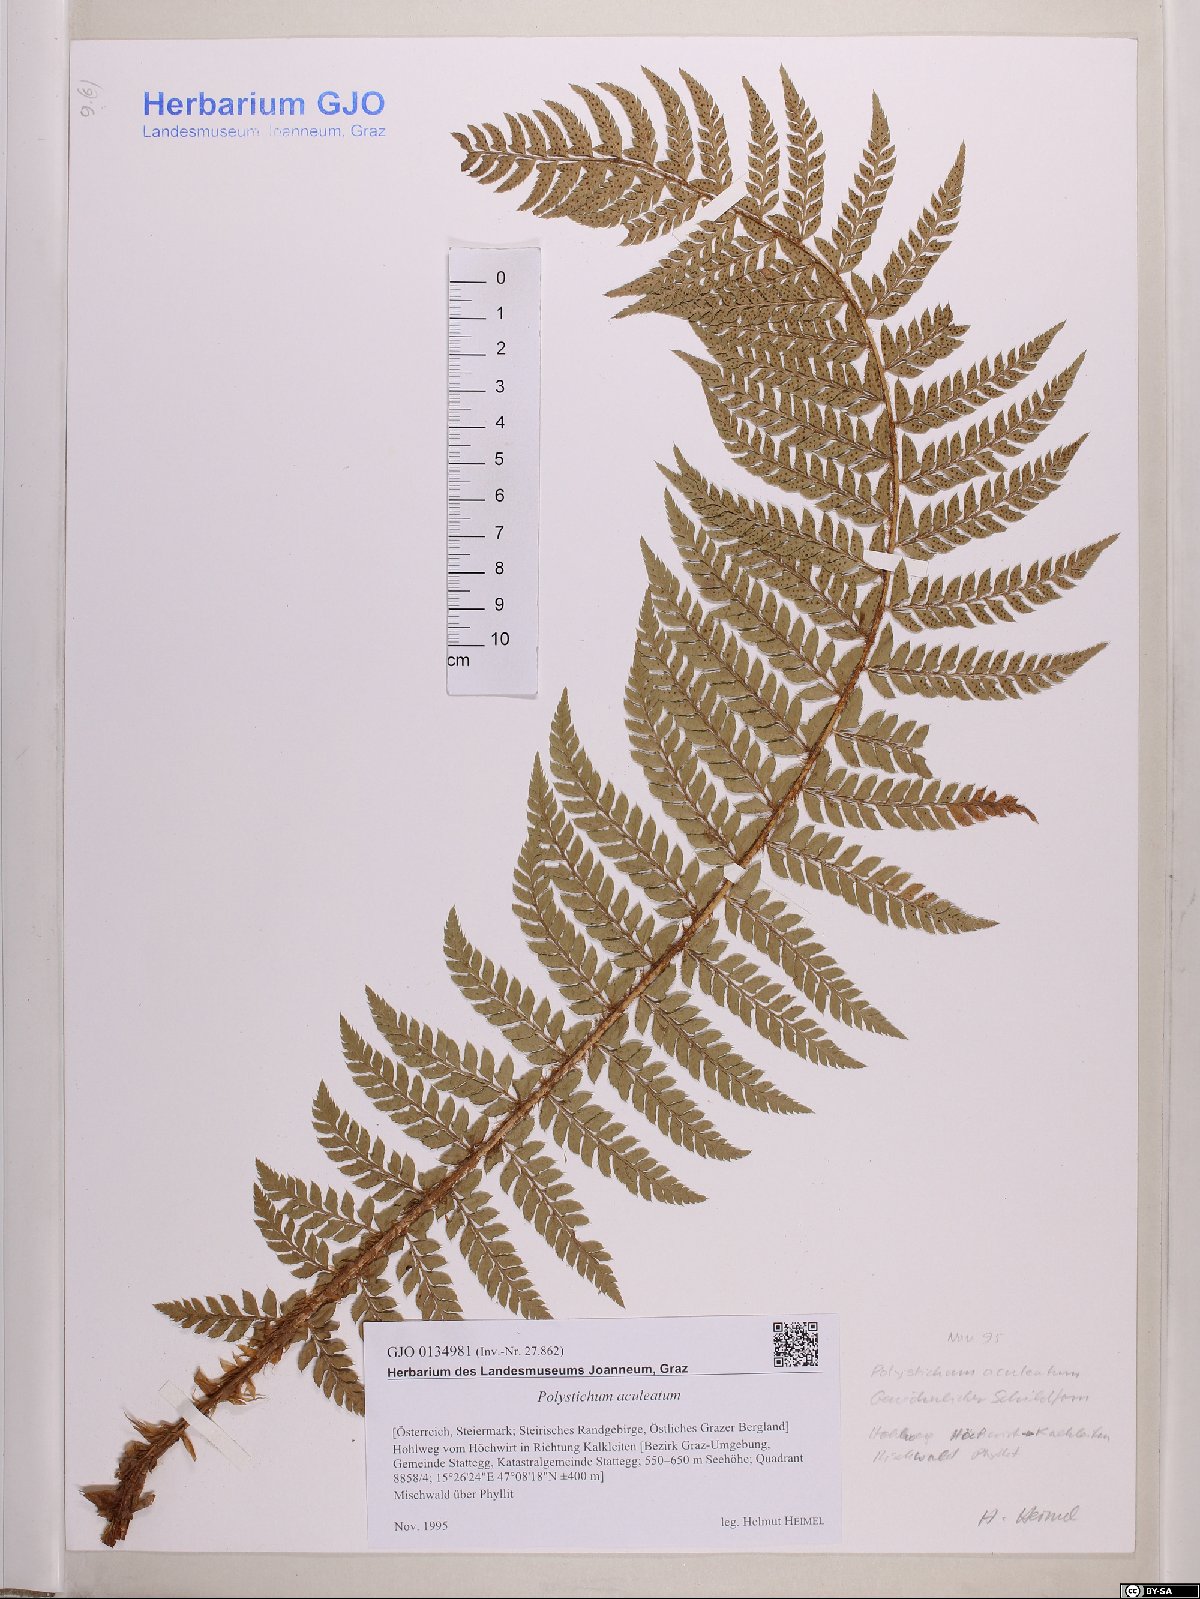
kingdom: Plantae
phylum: Tracheophyta
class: Polypodiopsida
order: Polypodiales
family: Dryopteridaceae
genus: Polystichum
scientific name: Polystichum aculeatum
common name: Hard shield-fern
